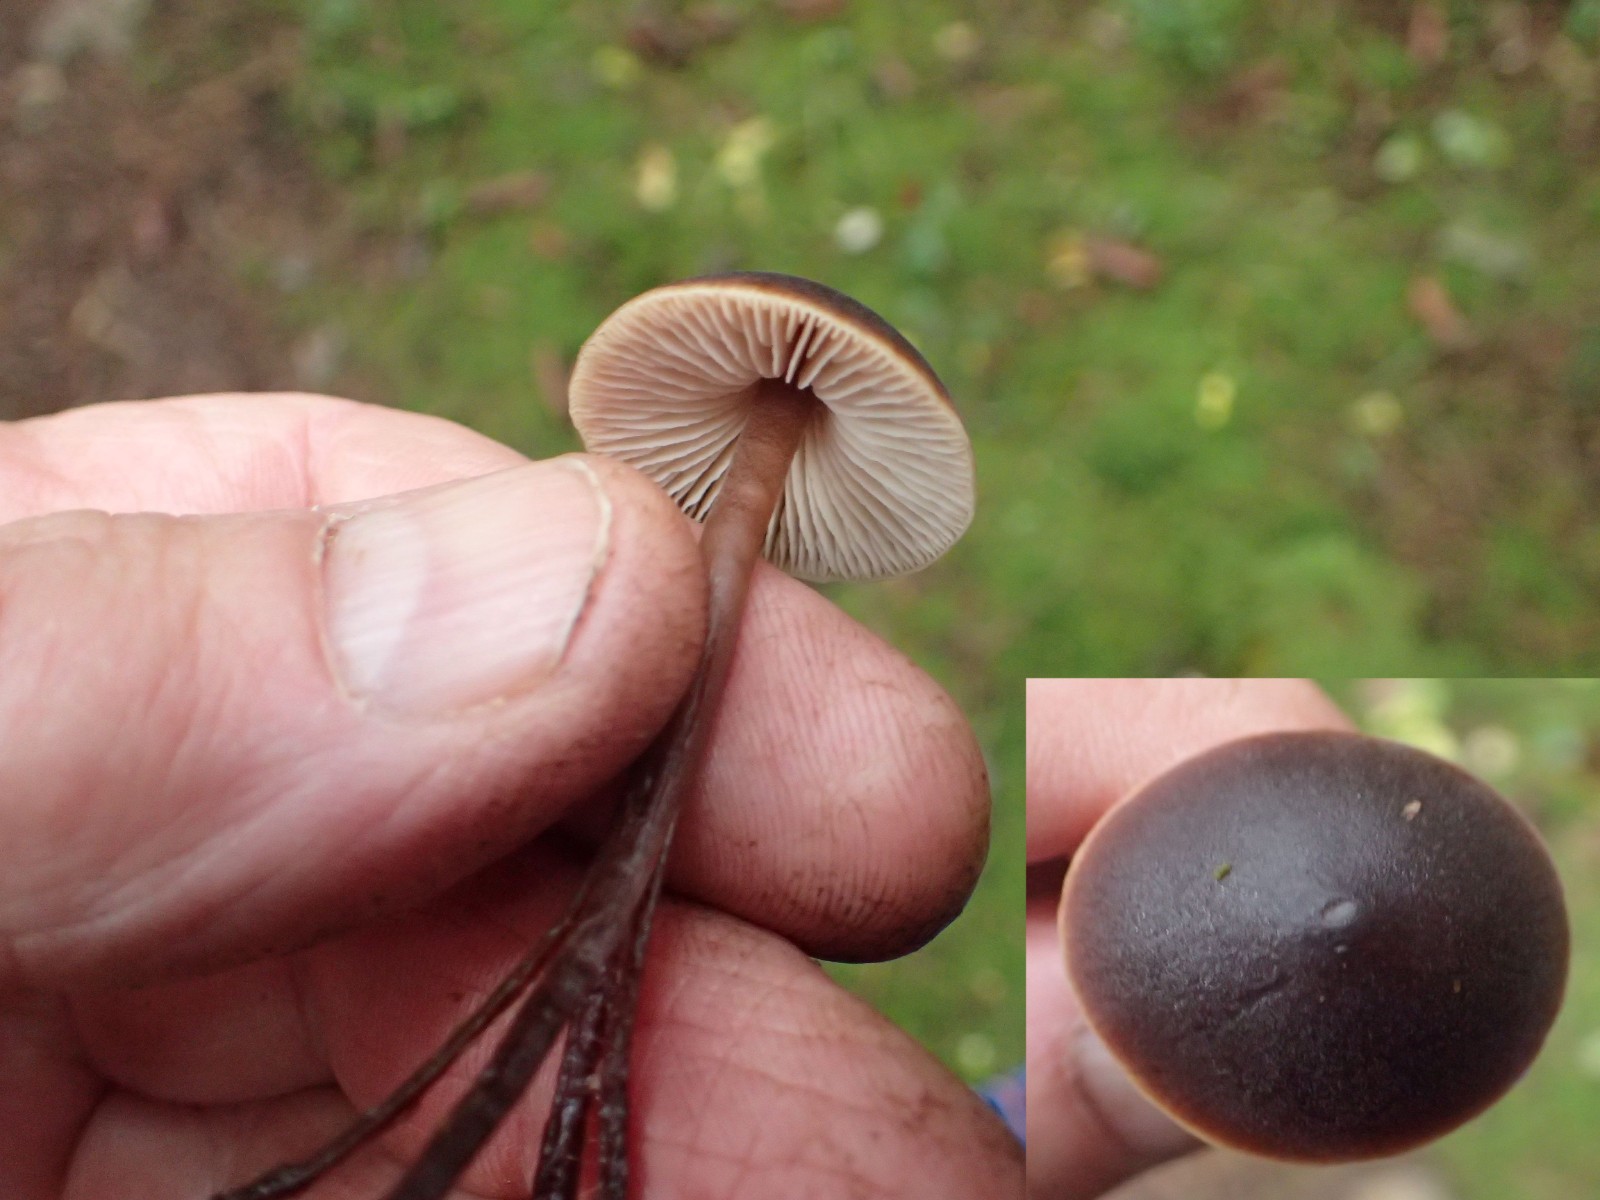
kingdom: Fungi
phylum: Basidiomycota
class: Agaricomycetes
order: Agaricales
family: Macrocystidiaceae
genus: Macrocystidia
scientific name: Macrocystidia cucumis
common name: agurkehat
